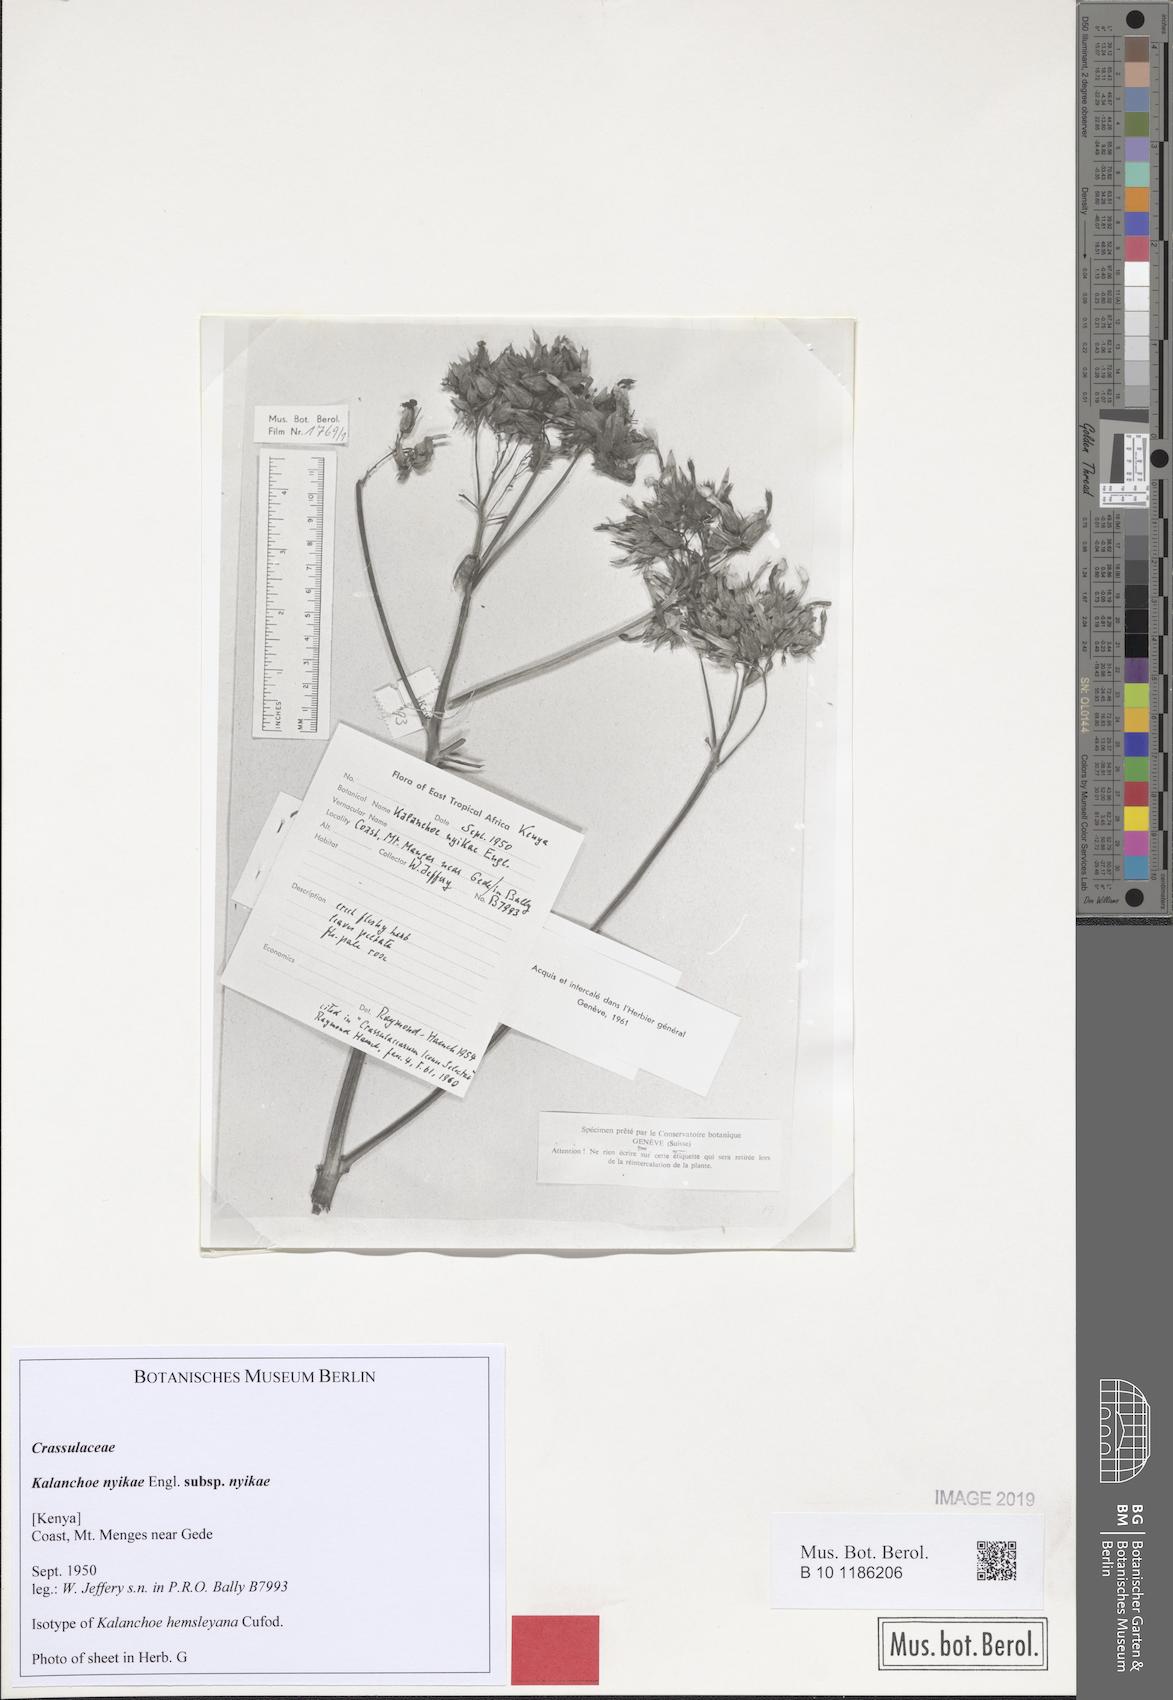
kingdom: Plantae
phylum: Tracheophyta
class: Magnoliopsida
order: Saxifragales
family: Crassulaceae
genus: Kalanchoe
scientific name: Kalanchoe nyikae
